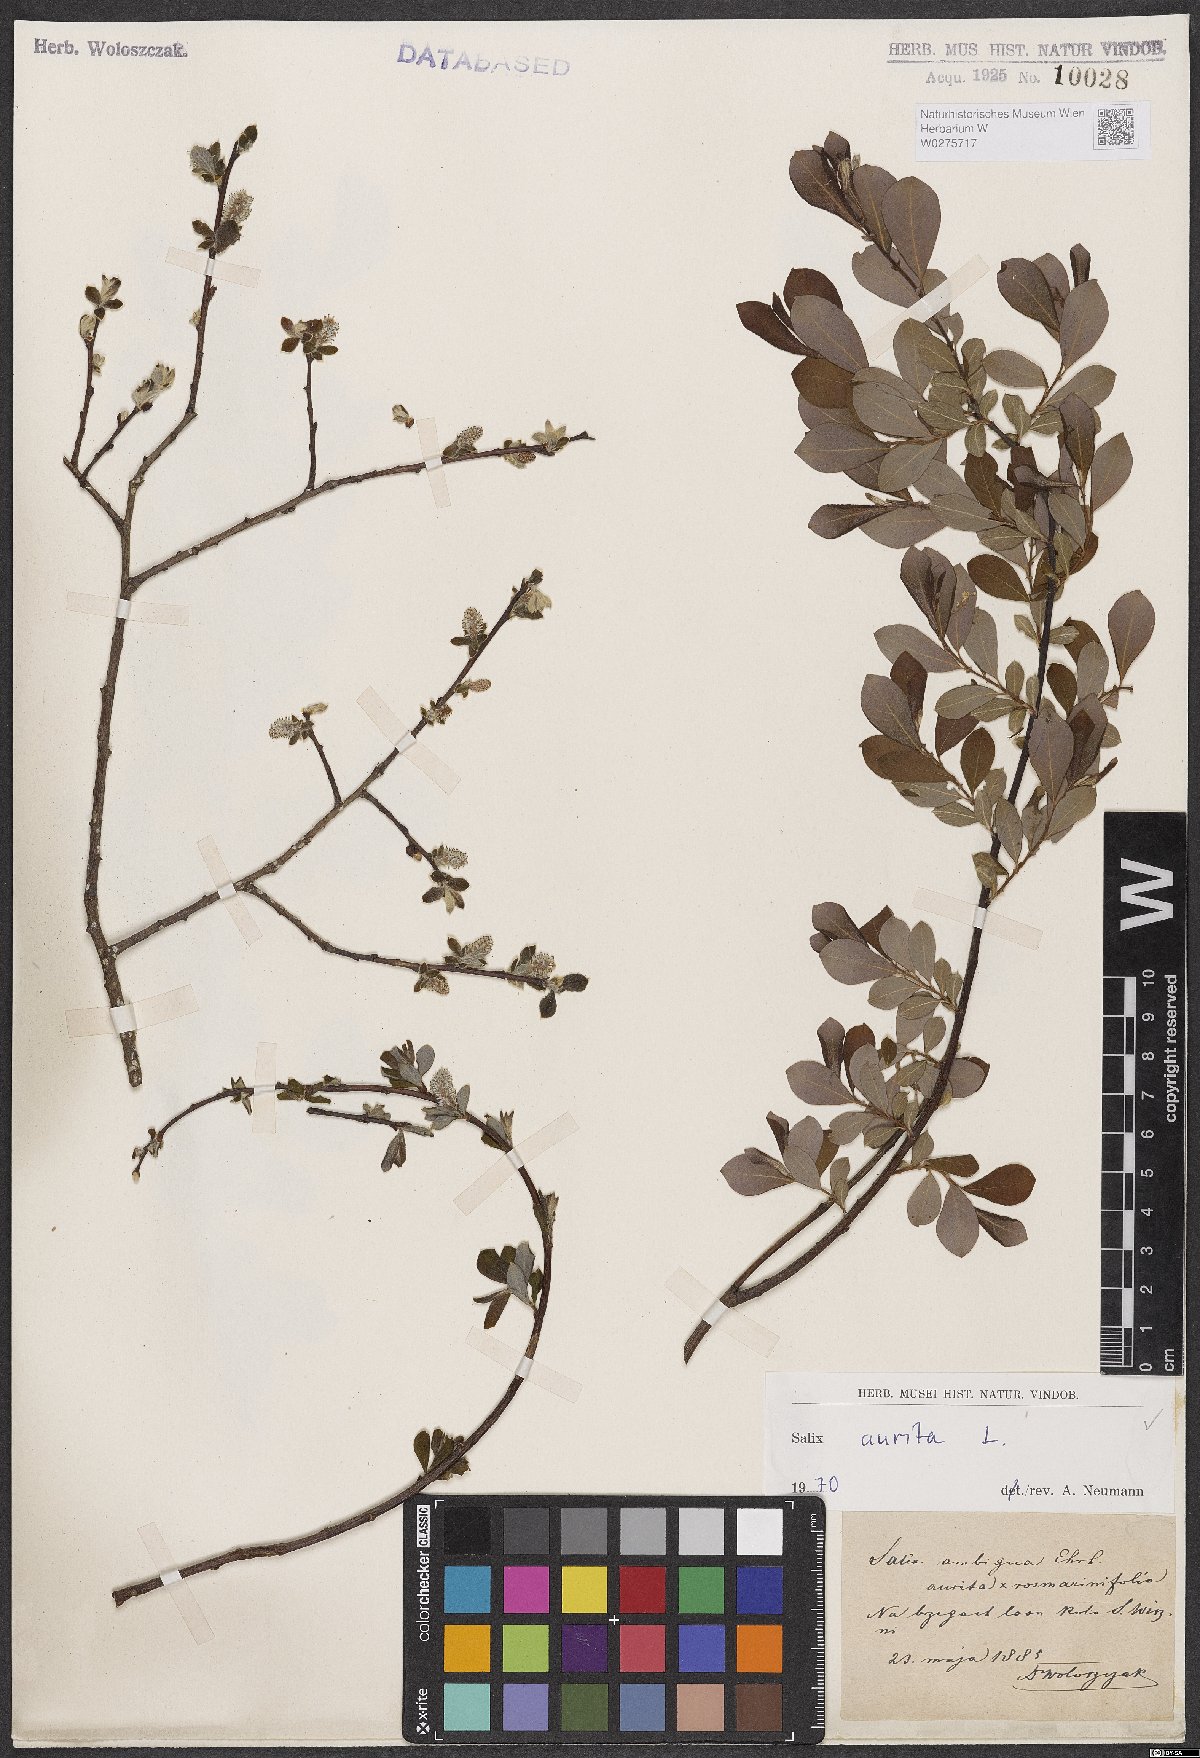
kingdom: Plantae
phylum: Tracheophyta
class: Magnoliopsida
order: Malpighiales
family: Salicaceae
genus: Salix
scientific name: Salix aurita
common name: Eared willow
